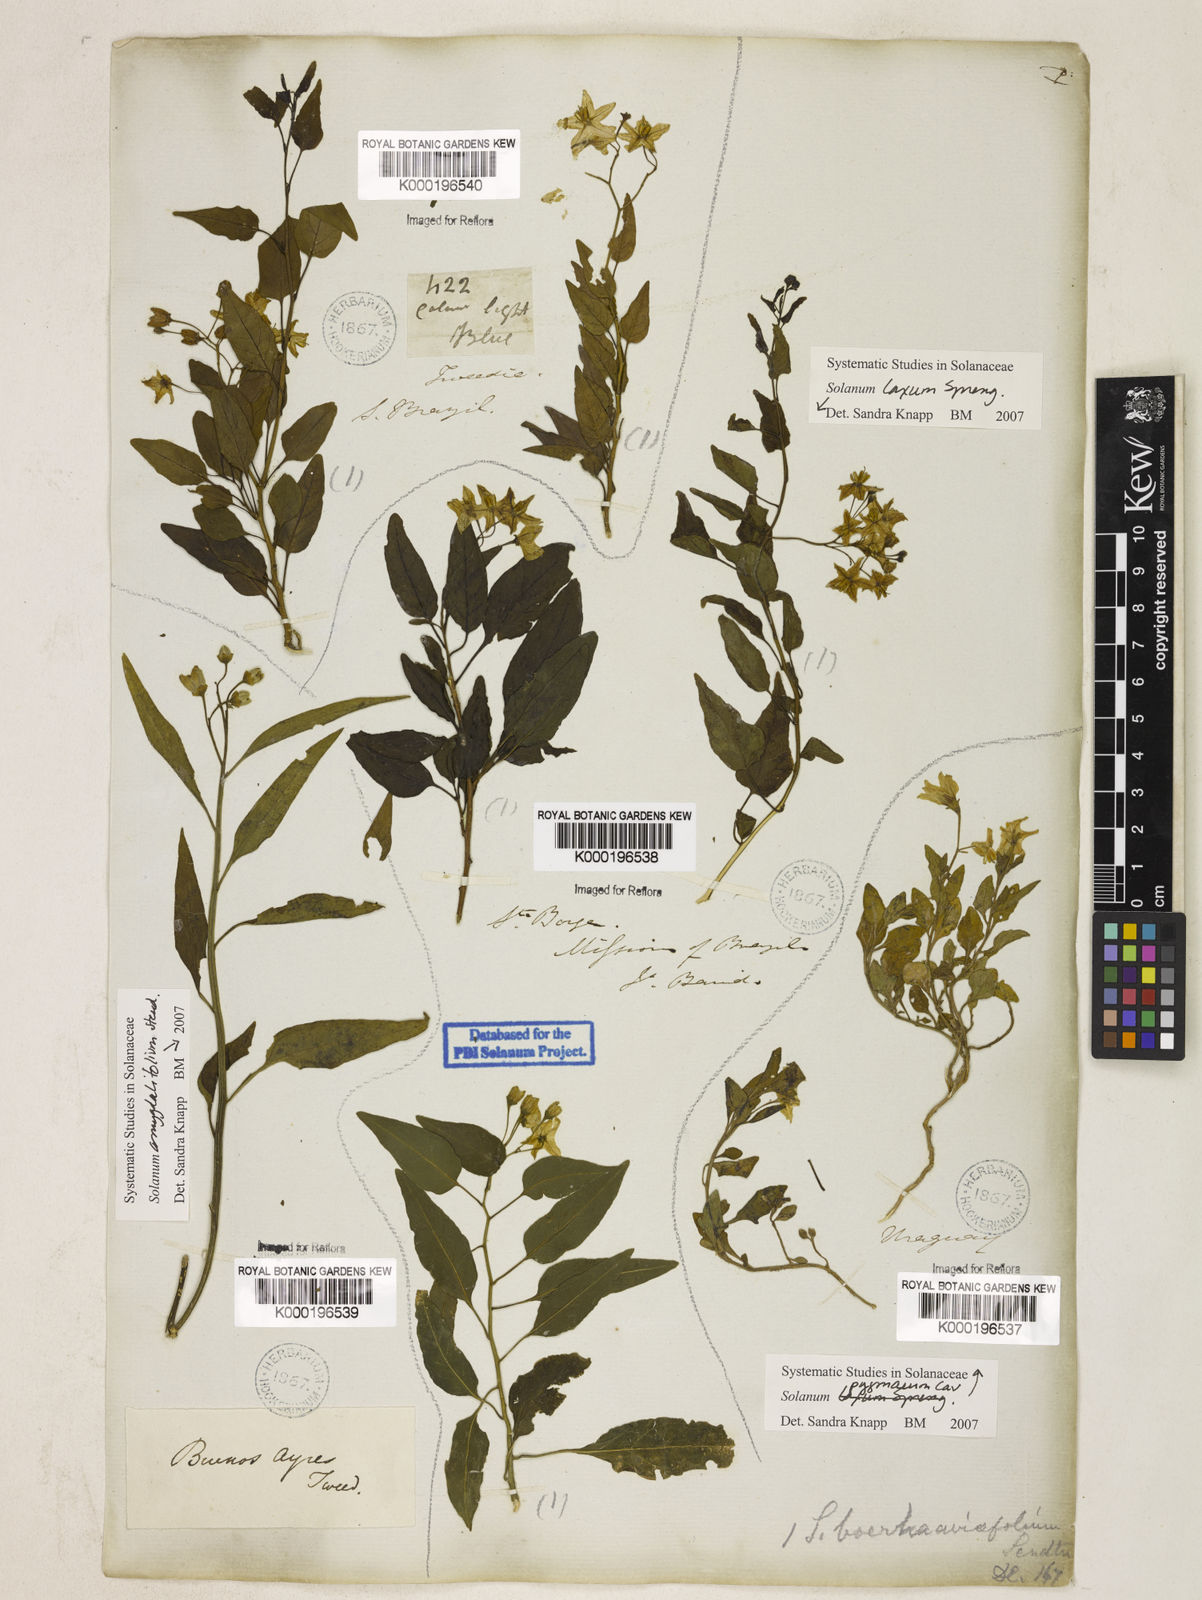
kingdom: Plantae
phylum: Tracheophyta
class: Magnoliopsida
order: Solanales
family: Solanaceae
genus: Solanum
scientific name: Solanum laxum
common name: Nightshade
